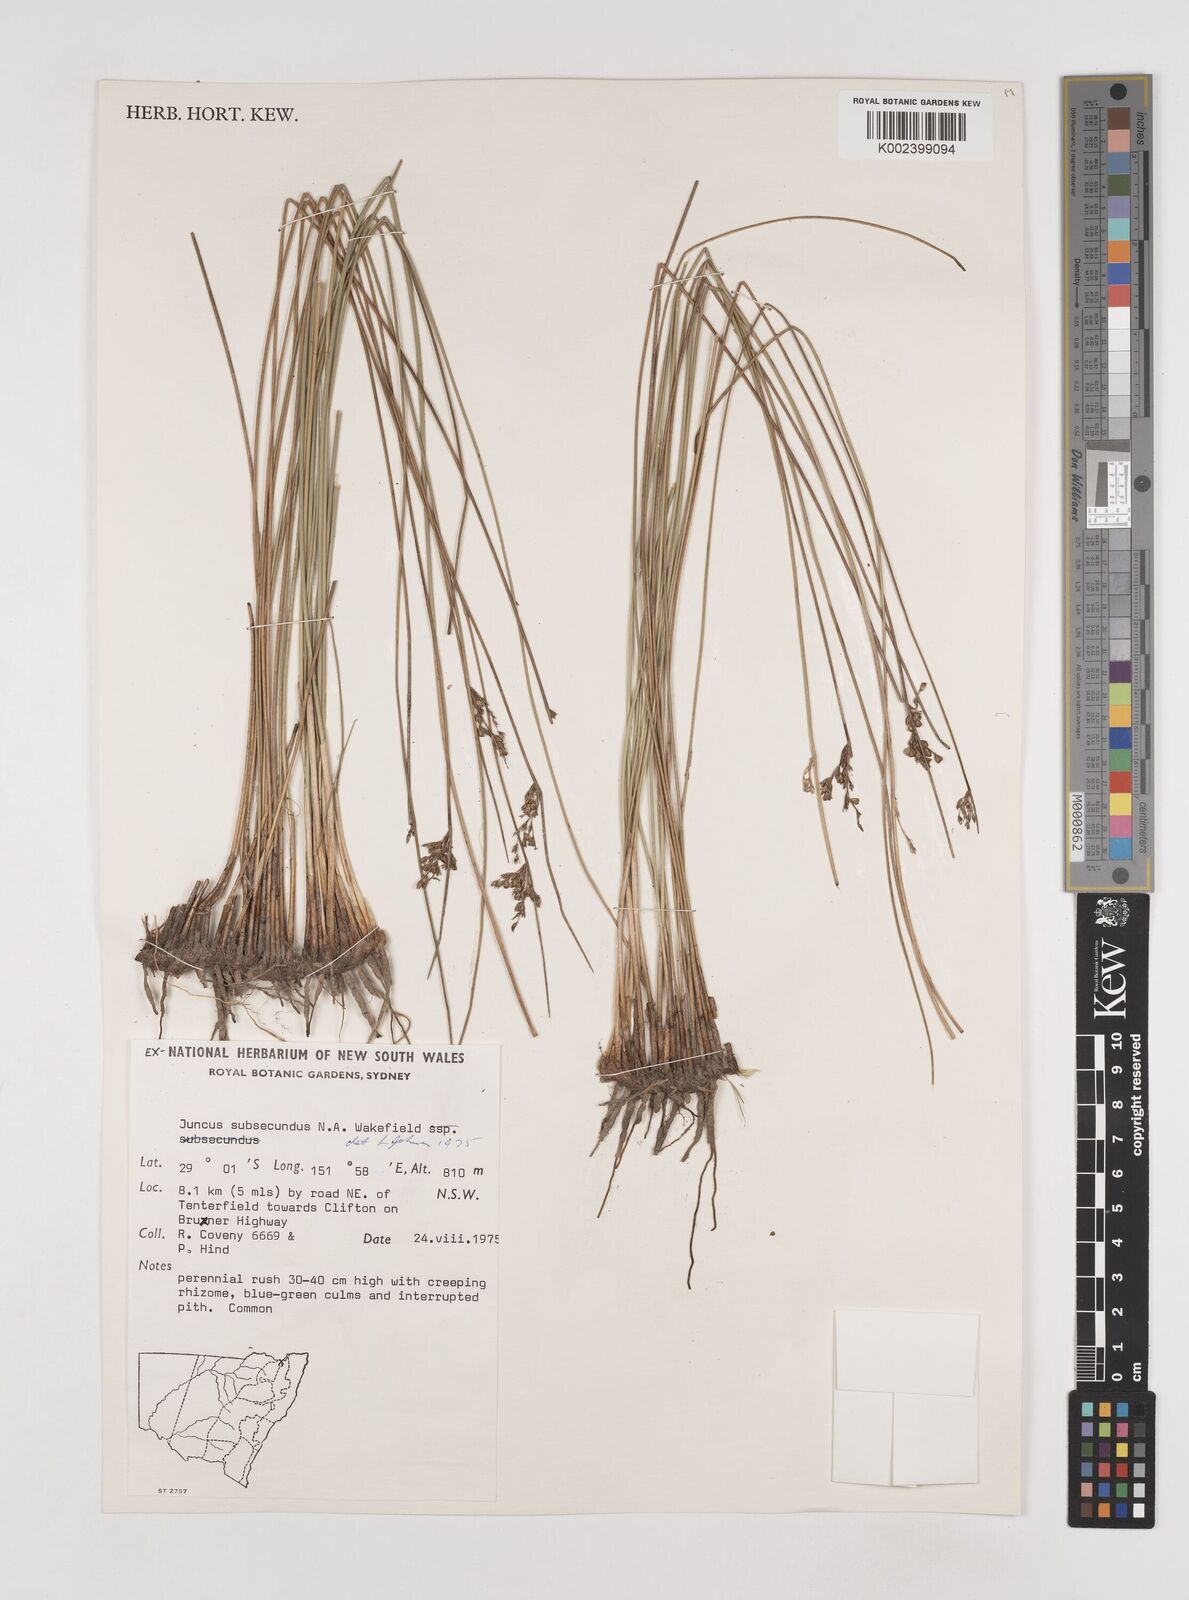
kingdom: Plantae
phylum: Tracheophyta
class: Liliopsida
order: Poales
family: Juncaceae
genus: Juncus
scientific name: Juncus subsecundus
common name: Fingered rush
